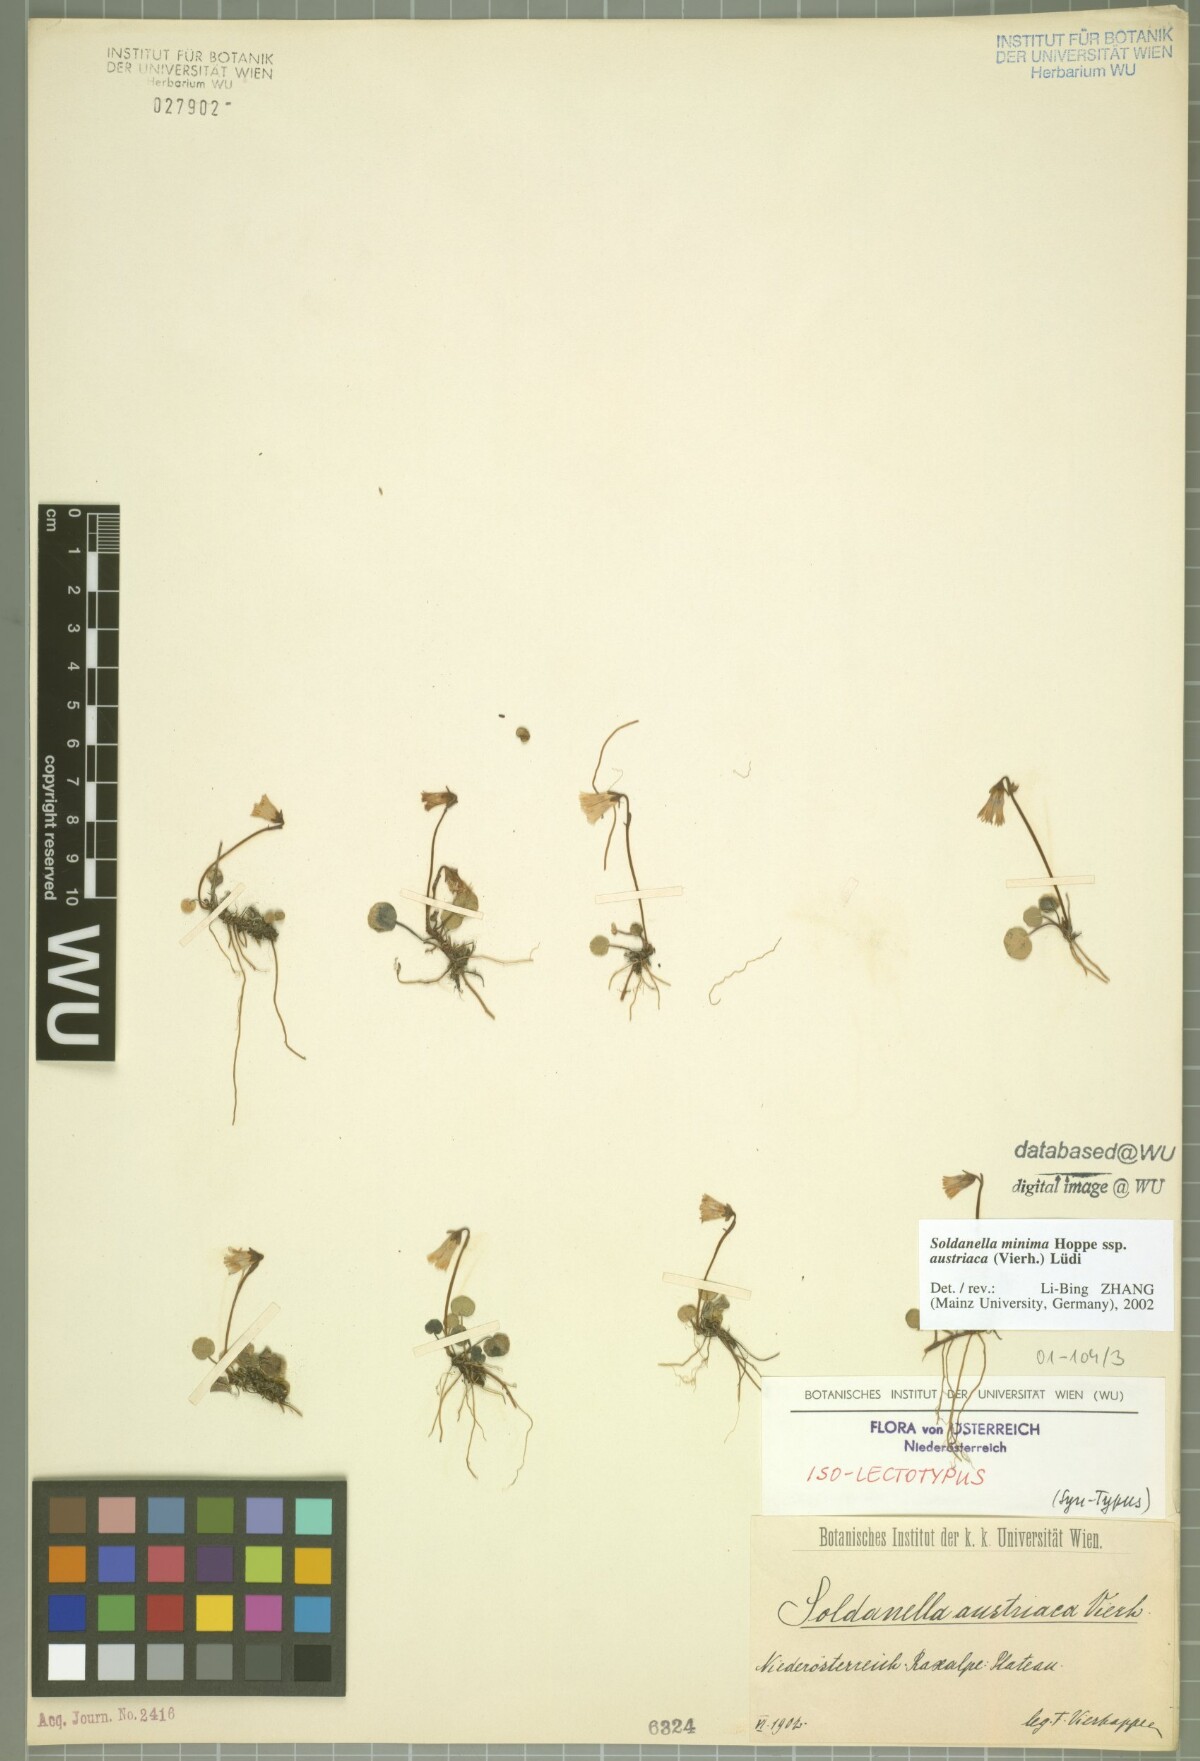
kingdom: Plantae
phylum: Tracheophyta
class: Magnoliopsida
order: Ericales
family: Primulaceae
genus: Soldanella
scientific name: Soldanella austriaca
